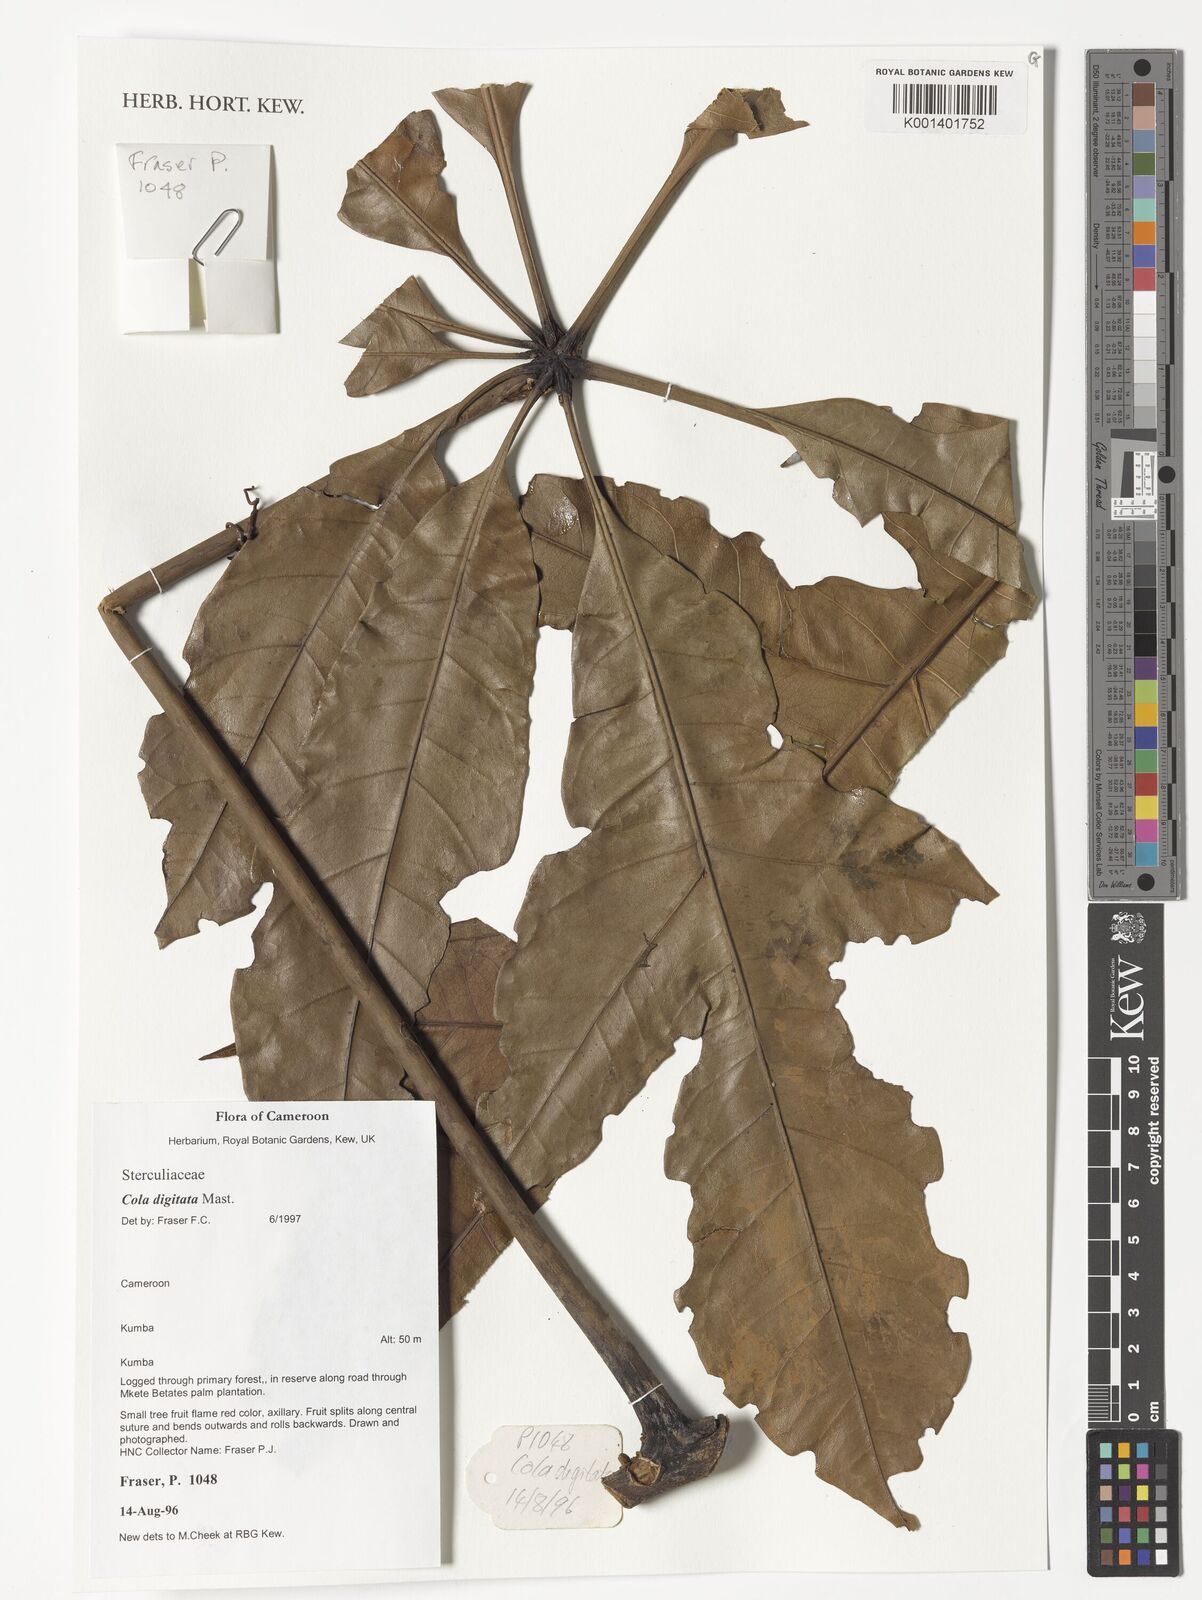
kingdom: Plantae
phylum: Tracheophyta
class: Magnoliopsida
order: Malvales
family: Malvaceae
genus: Cola
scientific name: Cola digitata
